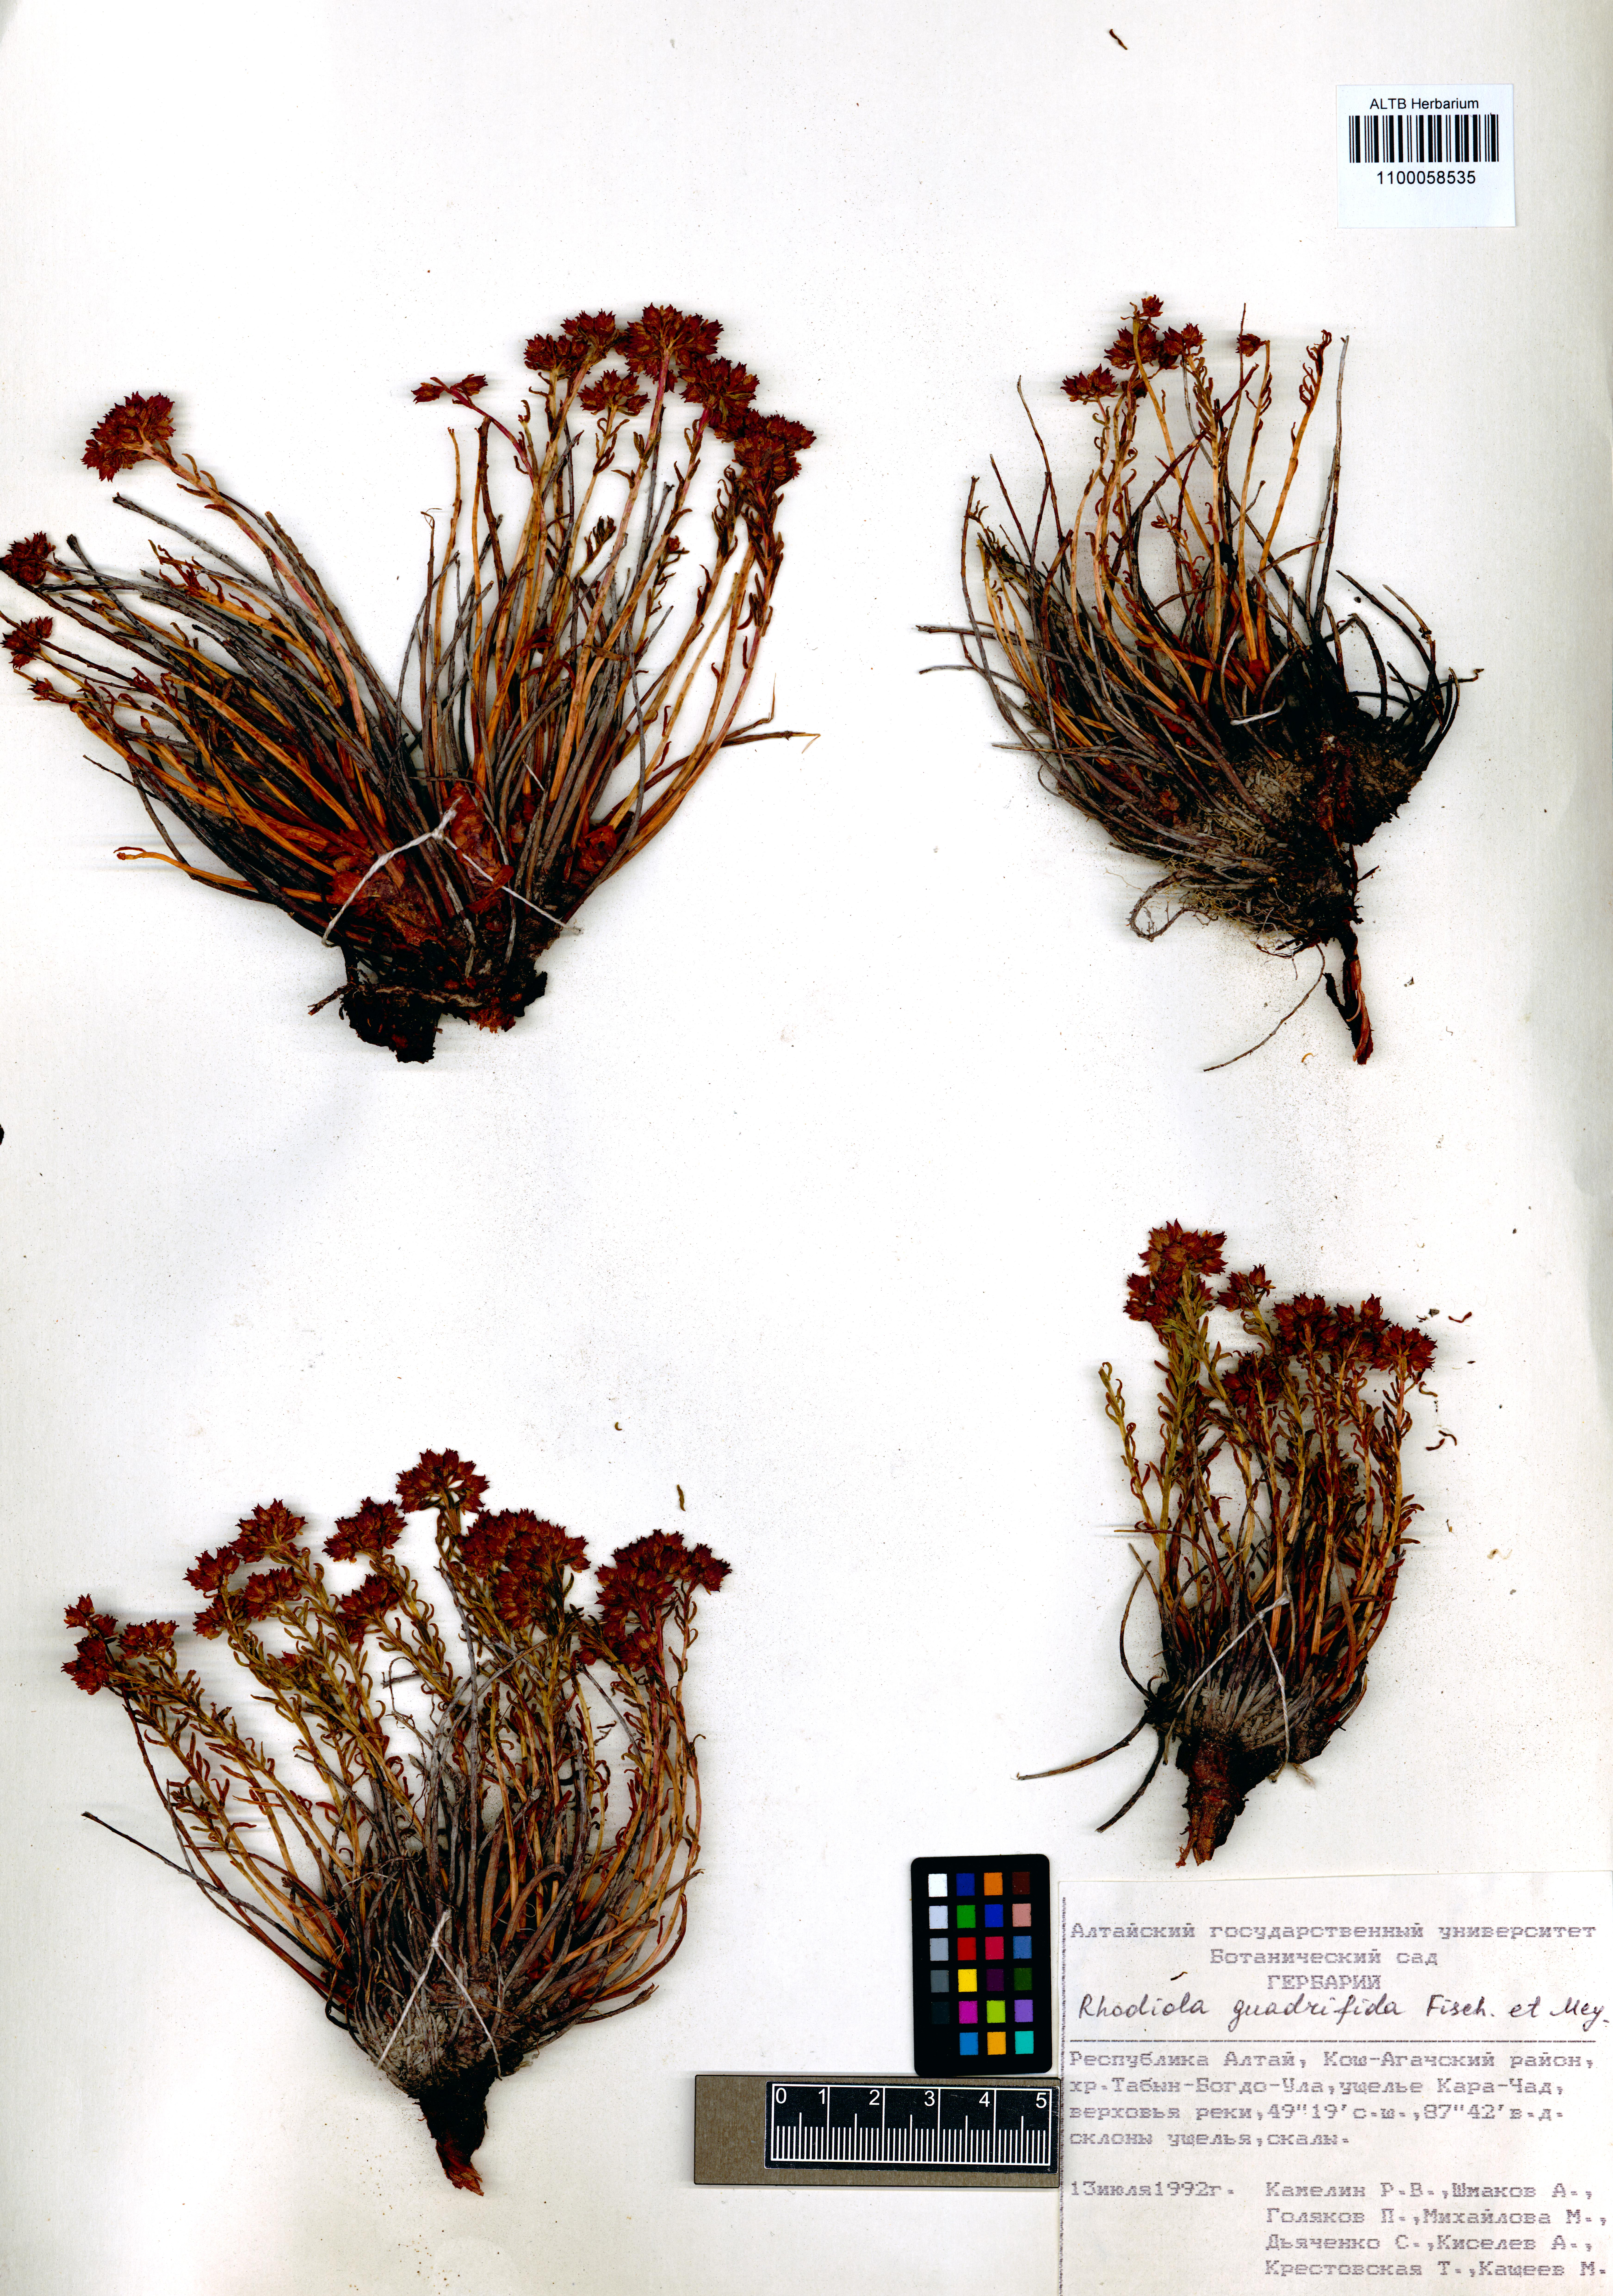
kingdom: Plantae
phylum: Tracheophyta
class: Magnoliopsida
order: Saxifragales
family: Crassulaceae
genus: Rhodiola
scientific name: Rhodiola quadrifida
